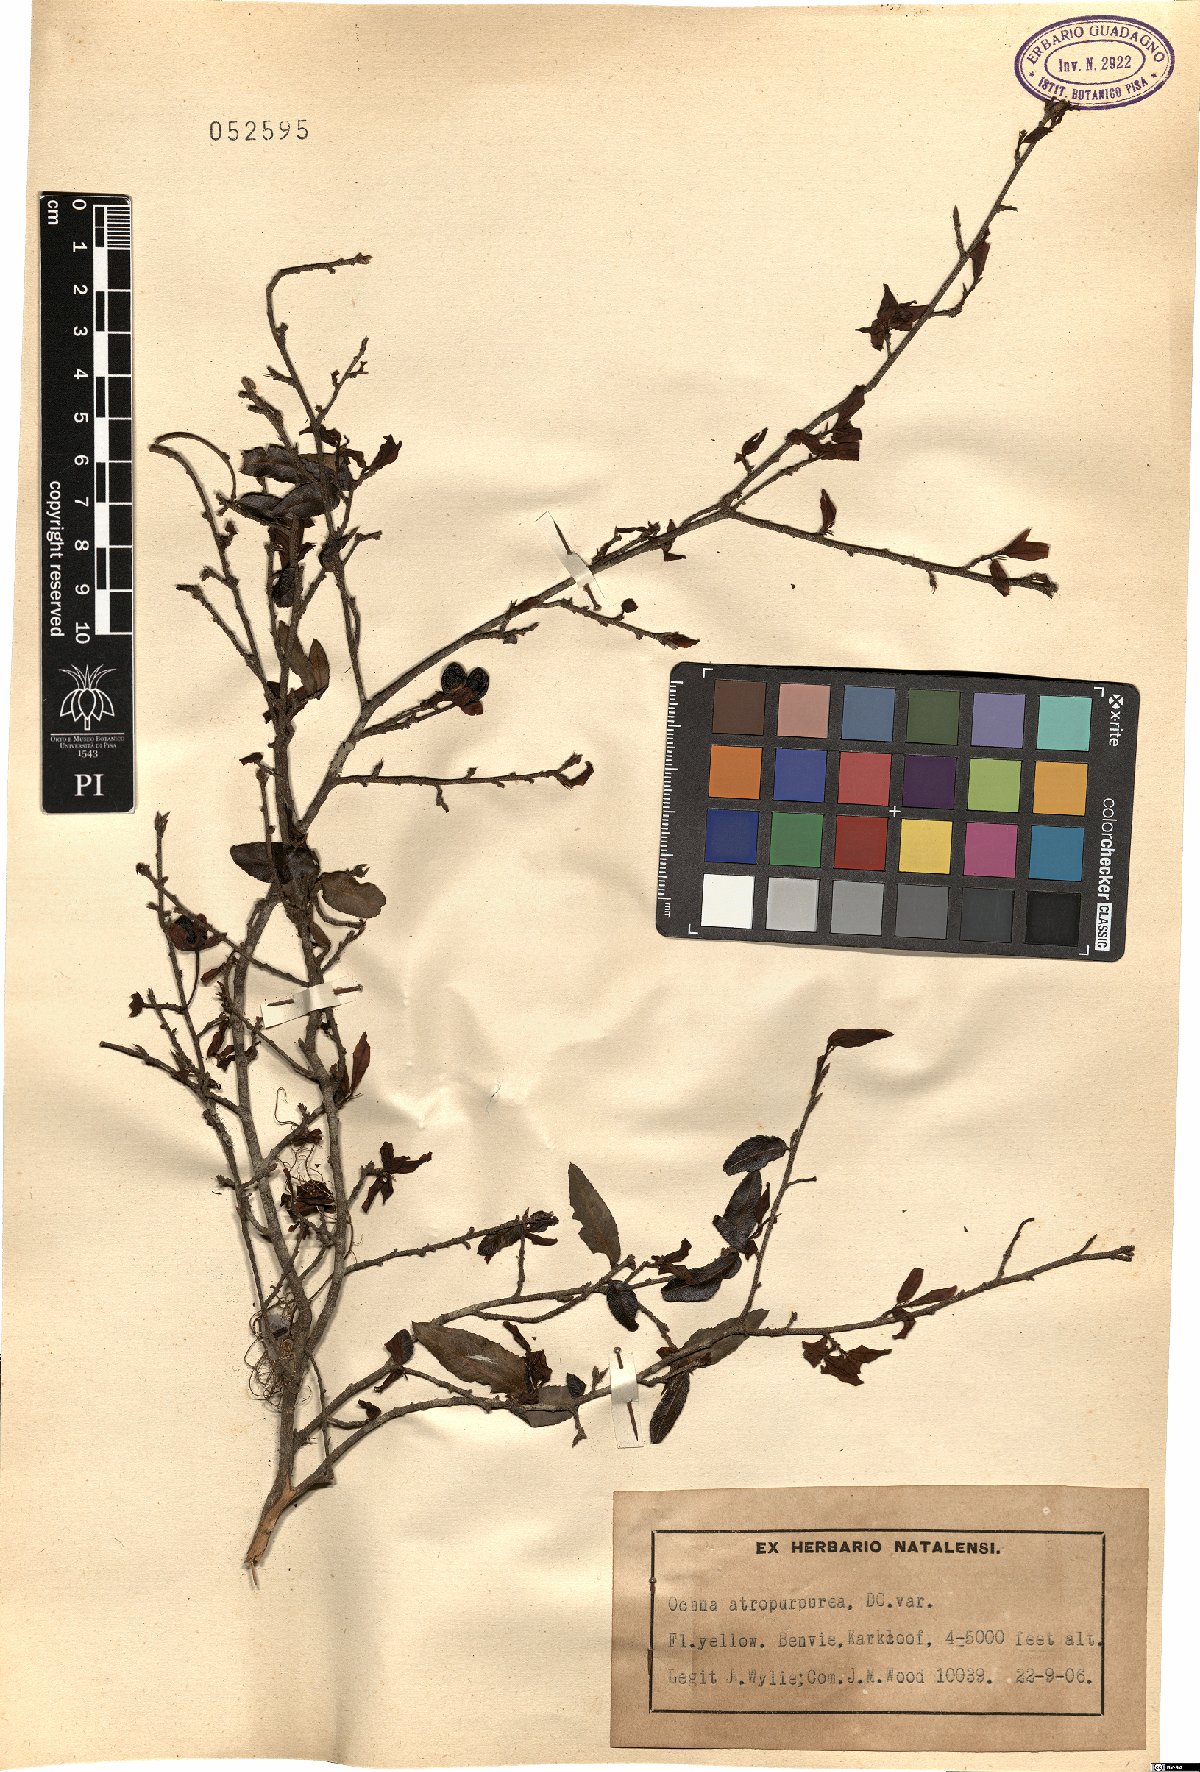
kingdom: Plantae
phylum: Tracheophyta
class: Magnoliopsida
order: Malpighiales
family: Ochnaceae
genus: Ochna
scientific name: Ochna atropurpurea
